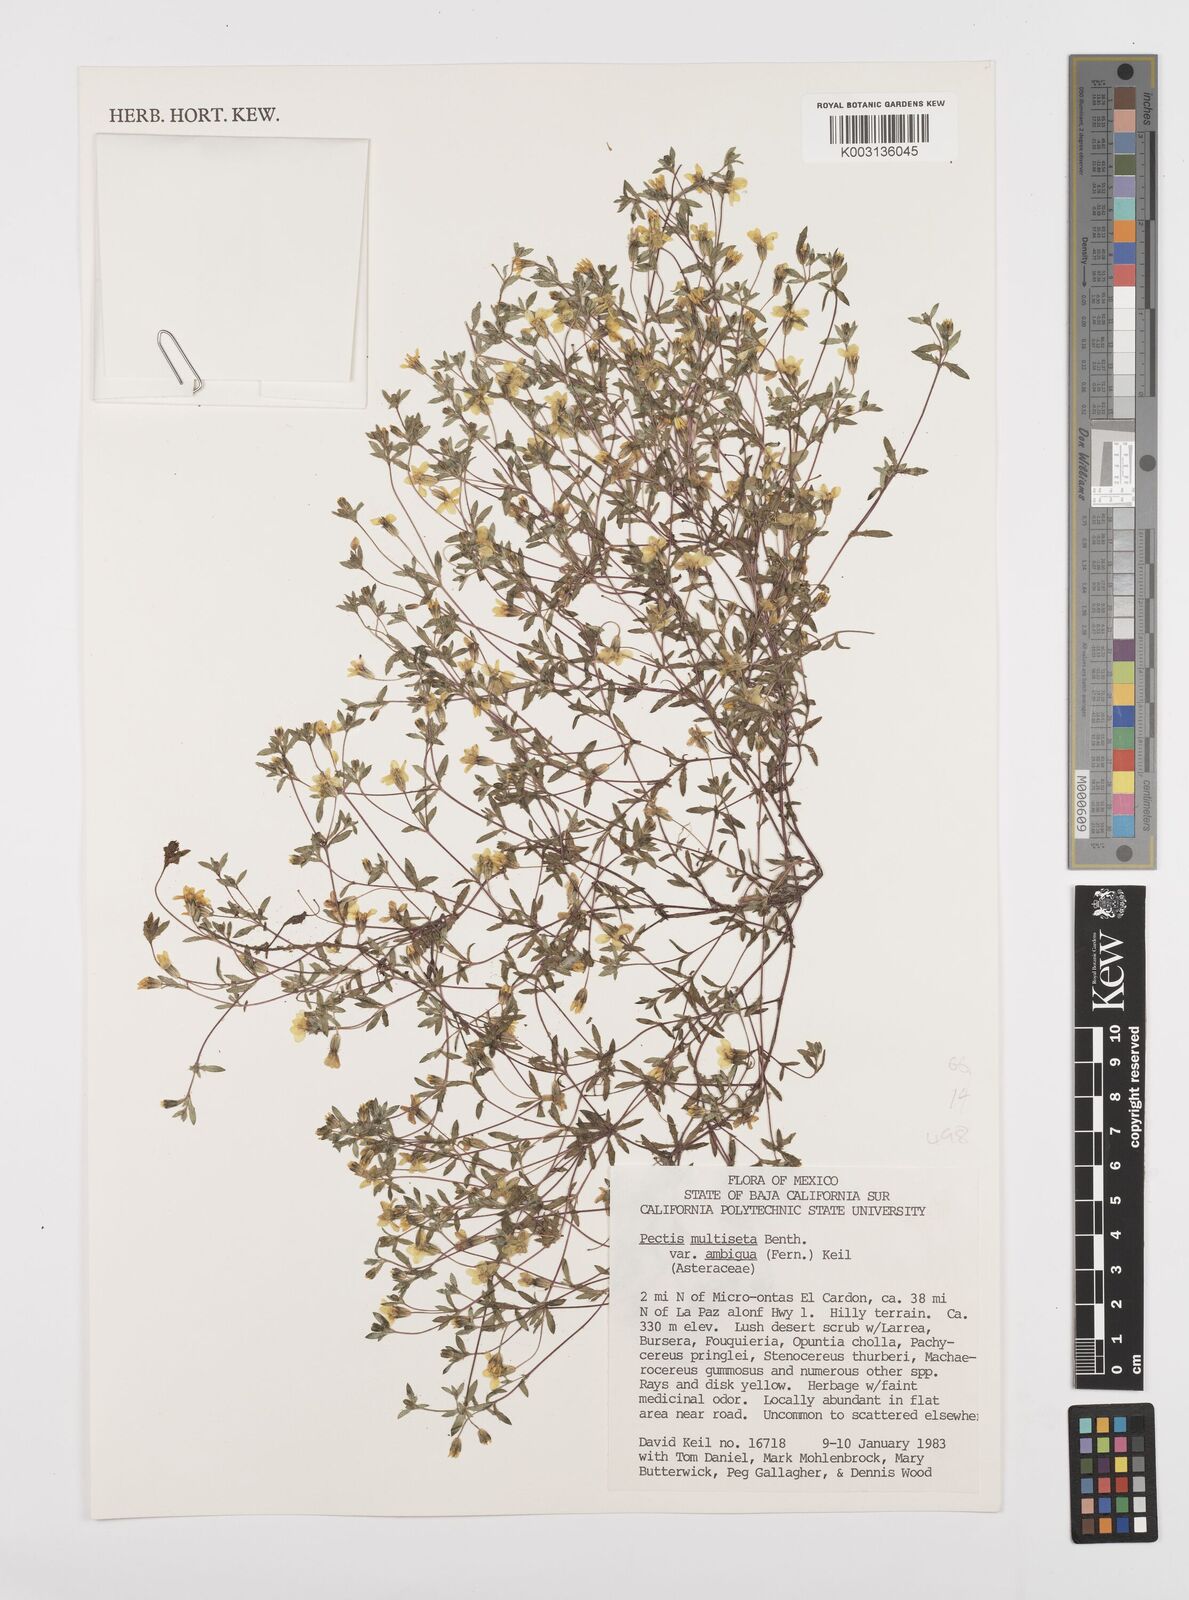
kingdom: Plantae
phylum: Tracheophyta
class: Magnoliopsida
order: Asterales
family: Asteraceae
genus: Pectis
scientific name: Pectis multiseta
